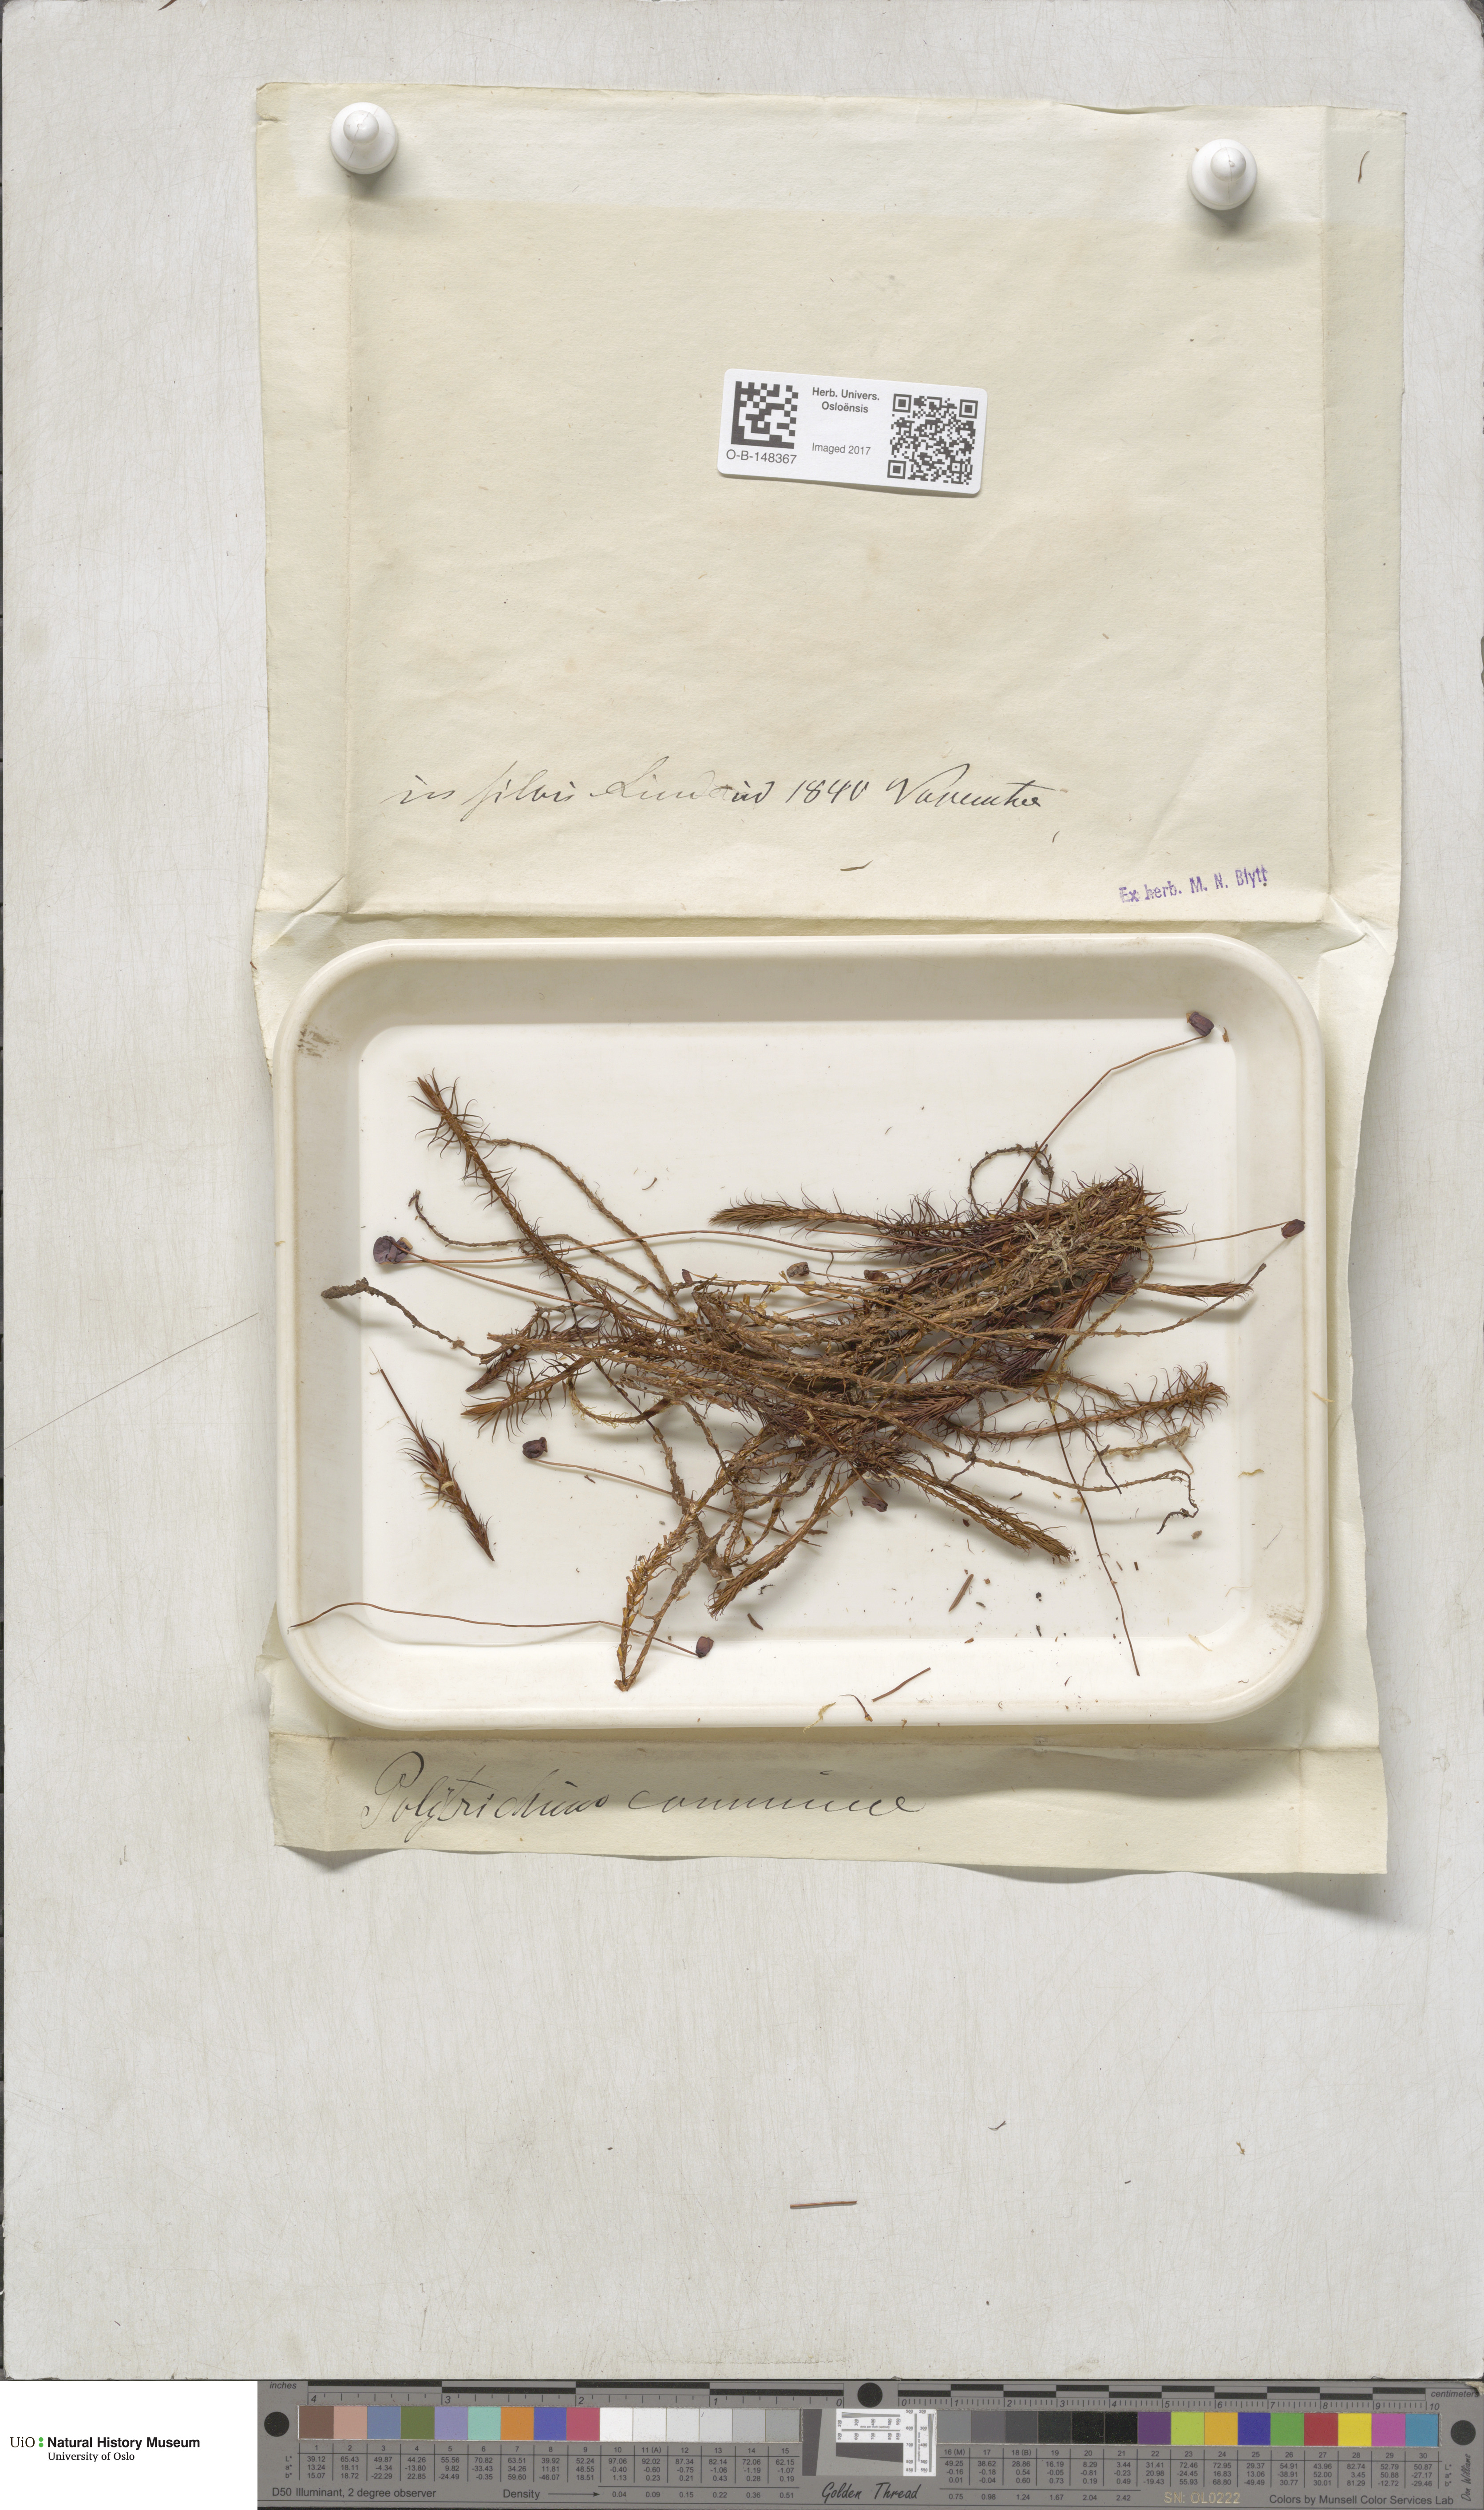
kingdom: Plantae
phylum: Bryophyta
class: Polytrichopsida
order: Polytrichales
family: Polytrichaceae
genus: Polytrichum
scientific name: Polytrichum commune
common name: Common haircap
